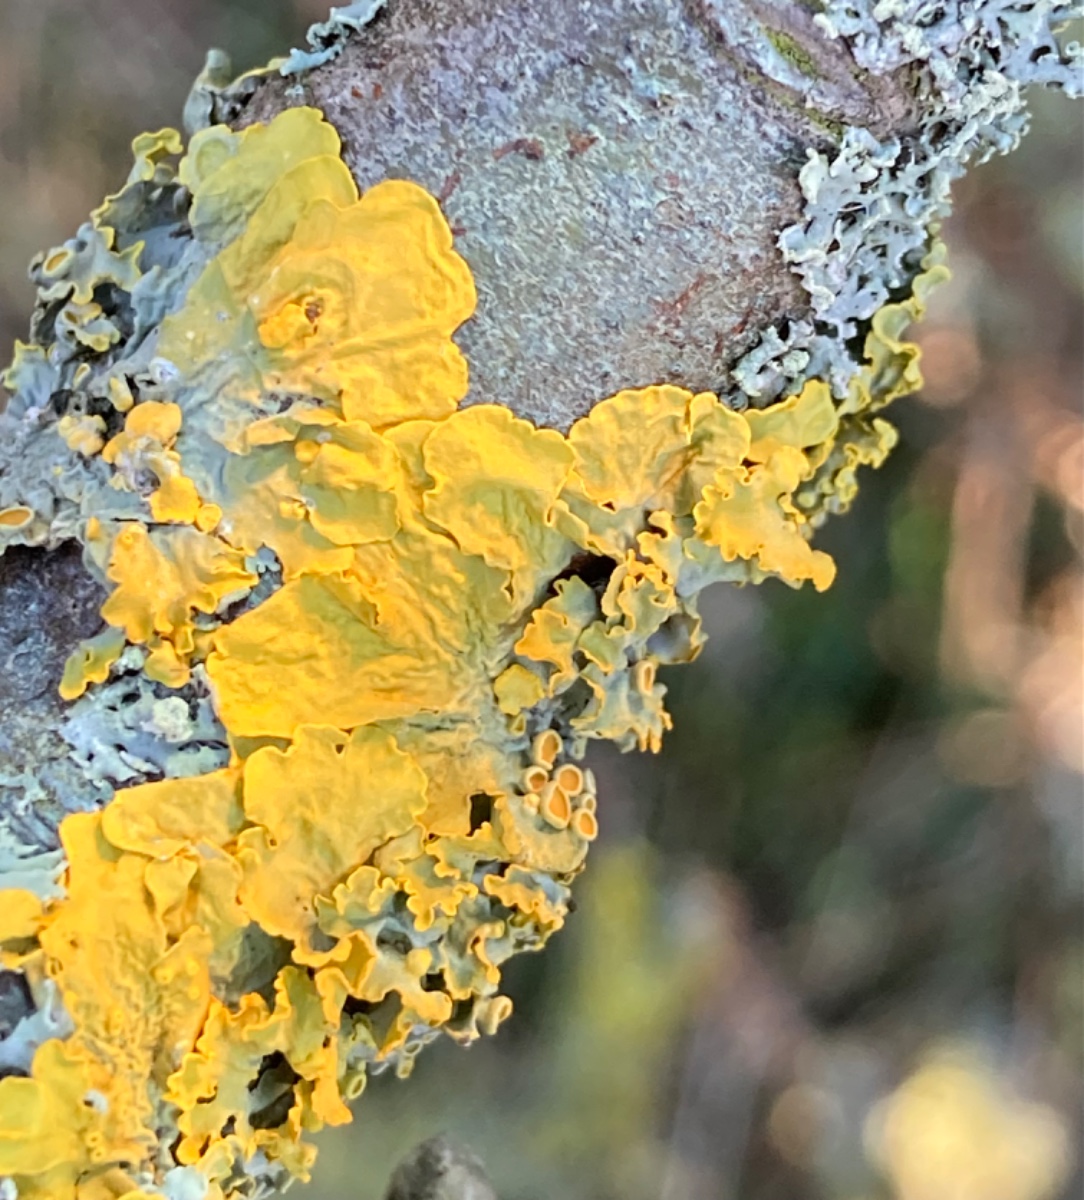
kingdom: Fungi
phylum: Ascomycota
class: Lecanoromycetes
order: Teloschistales
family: Teloschistaceae
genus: Xanthoria
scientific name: Xanthoria parietina
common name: almindelig væggelav
